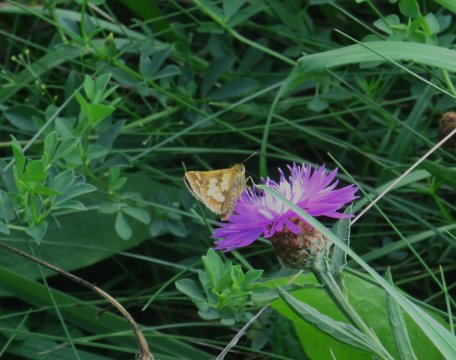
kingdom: Animalia
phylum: Arthropoda
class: Insecta
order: Lepidoptera
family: Hesperiidae
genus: Polites
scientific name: Polites coras
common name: Peck's Skipper
